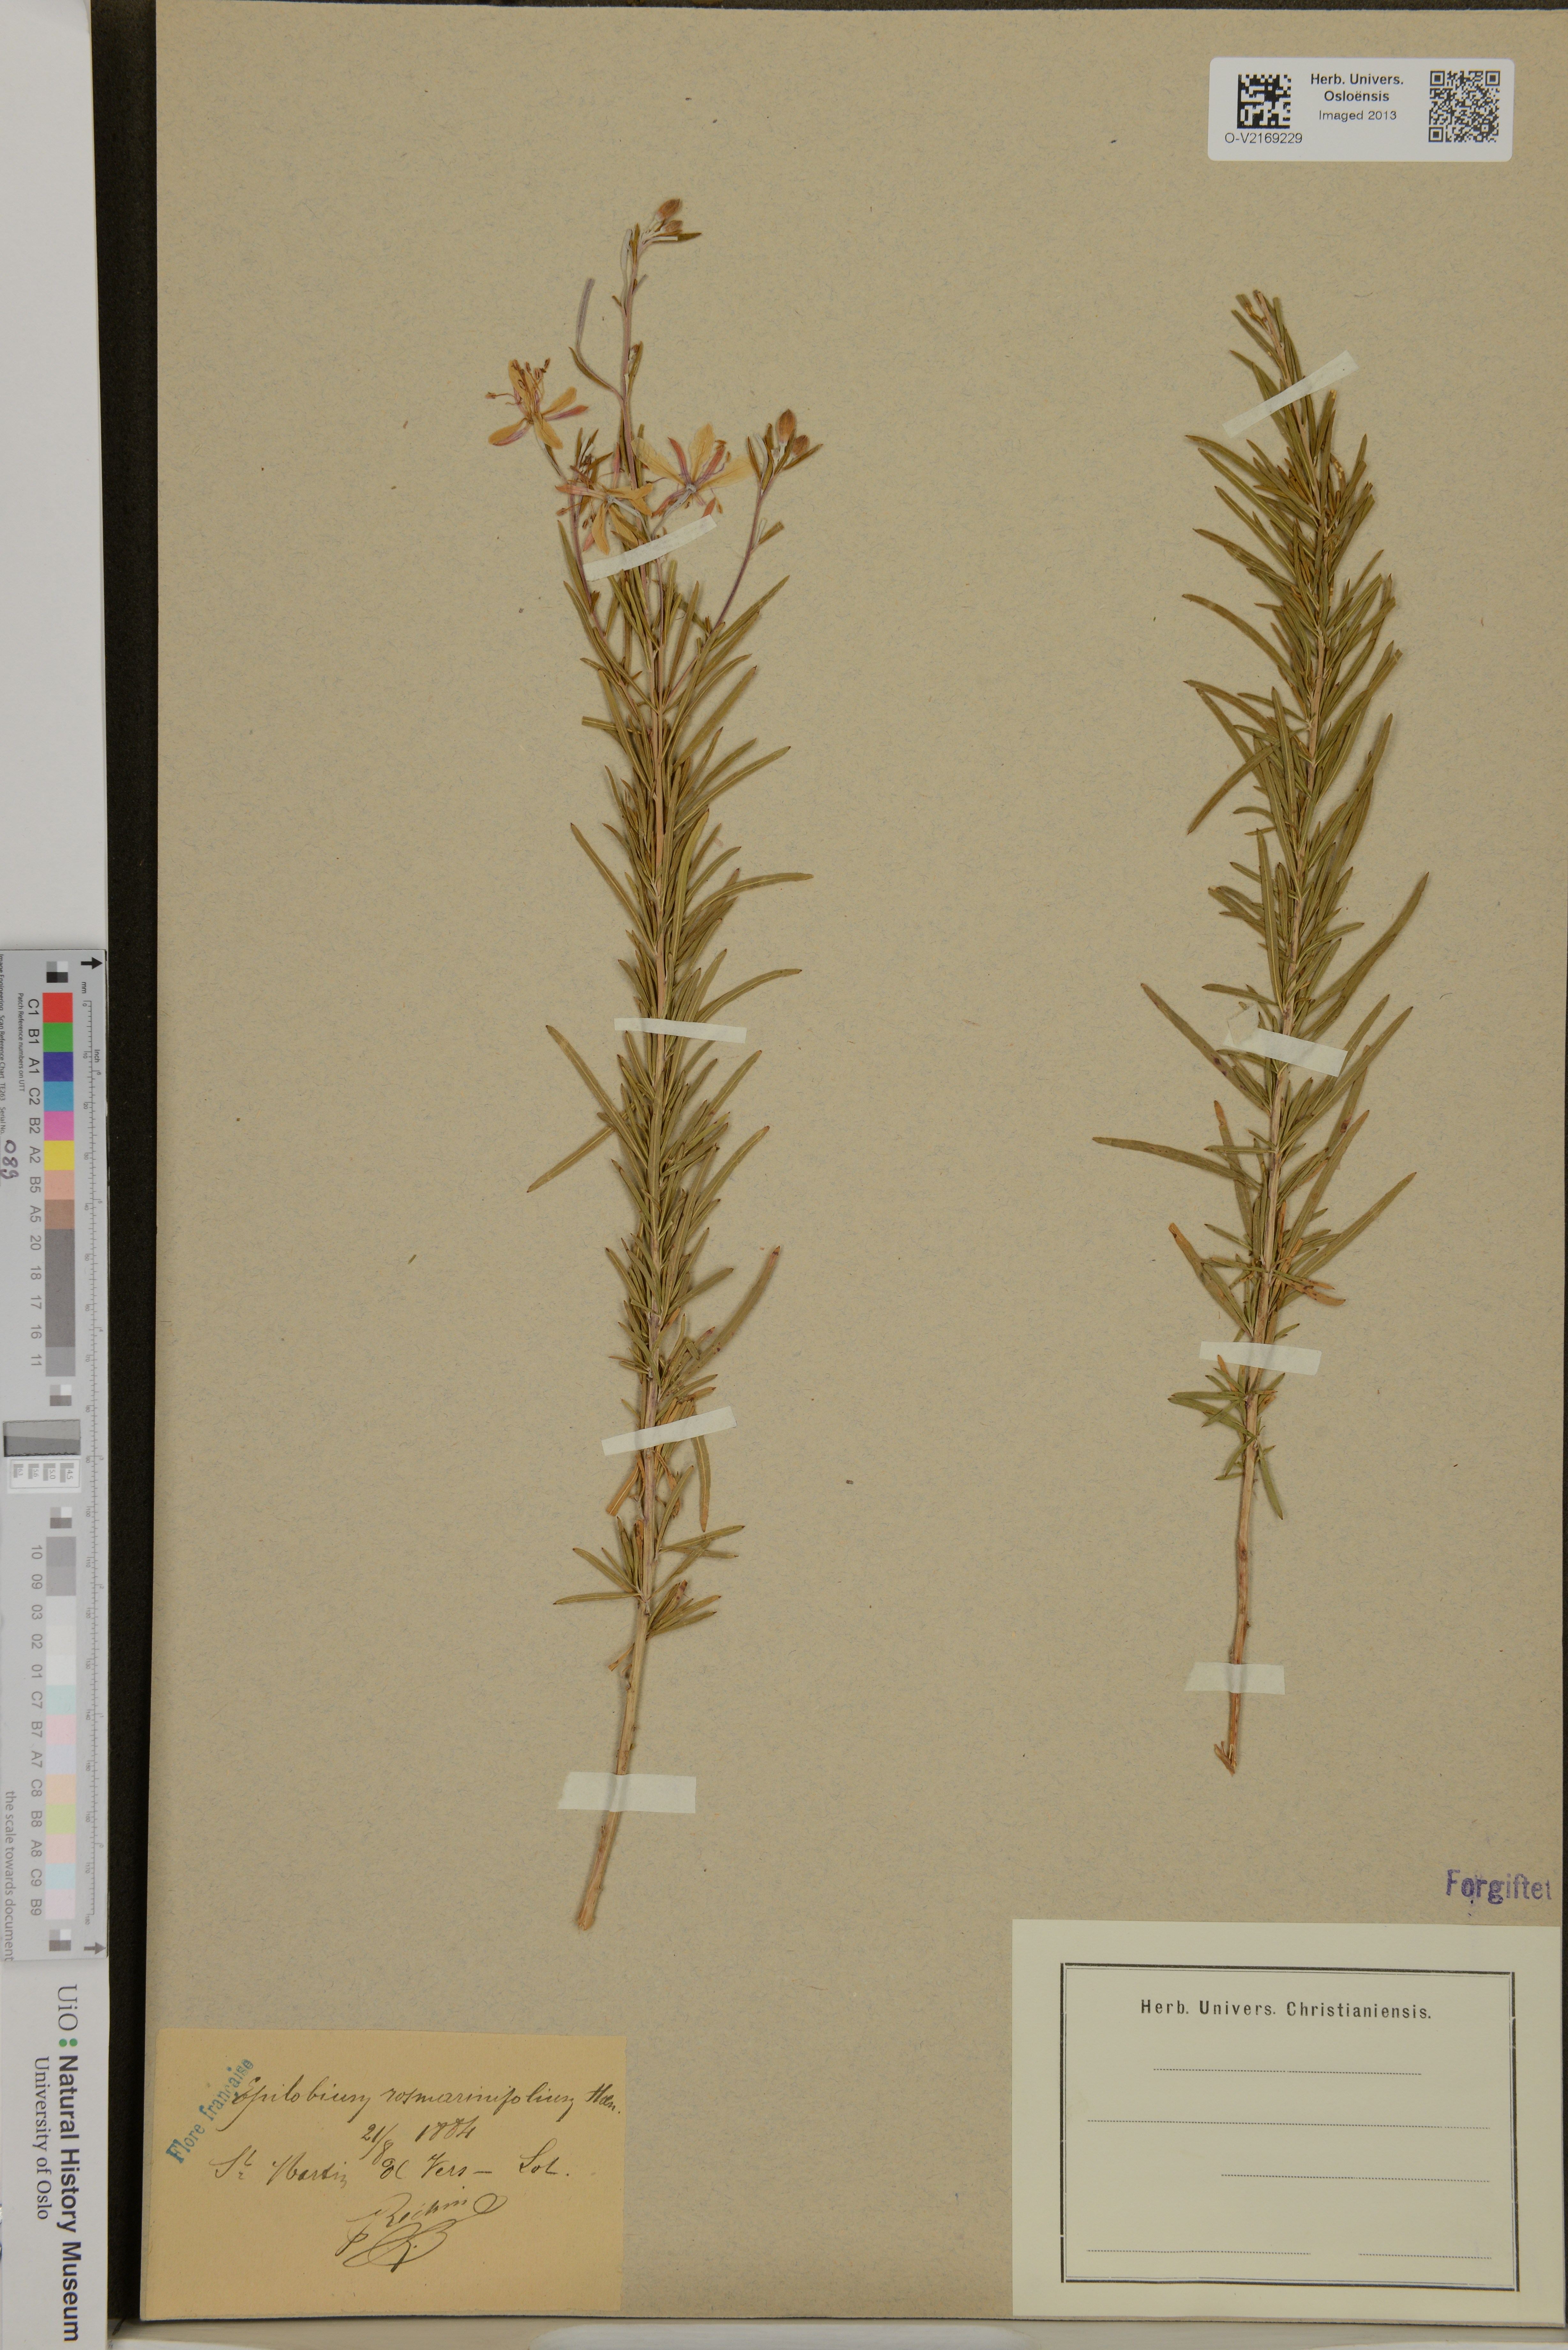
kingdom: Plantae
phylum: Tracheophyta
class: Magnoliopsida
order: Myrtales
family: Onagraceae
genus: Epilobium
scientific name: Epilobium leptophyllum
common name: Bog willowherb
